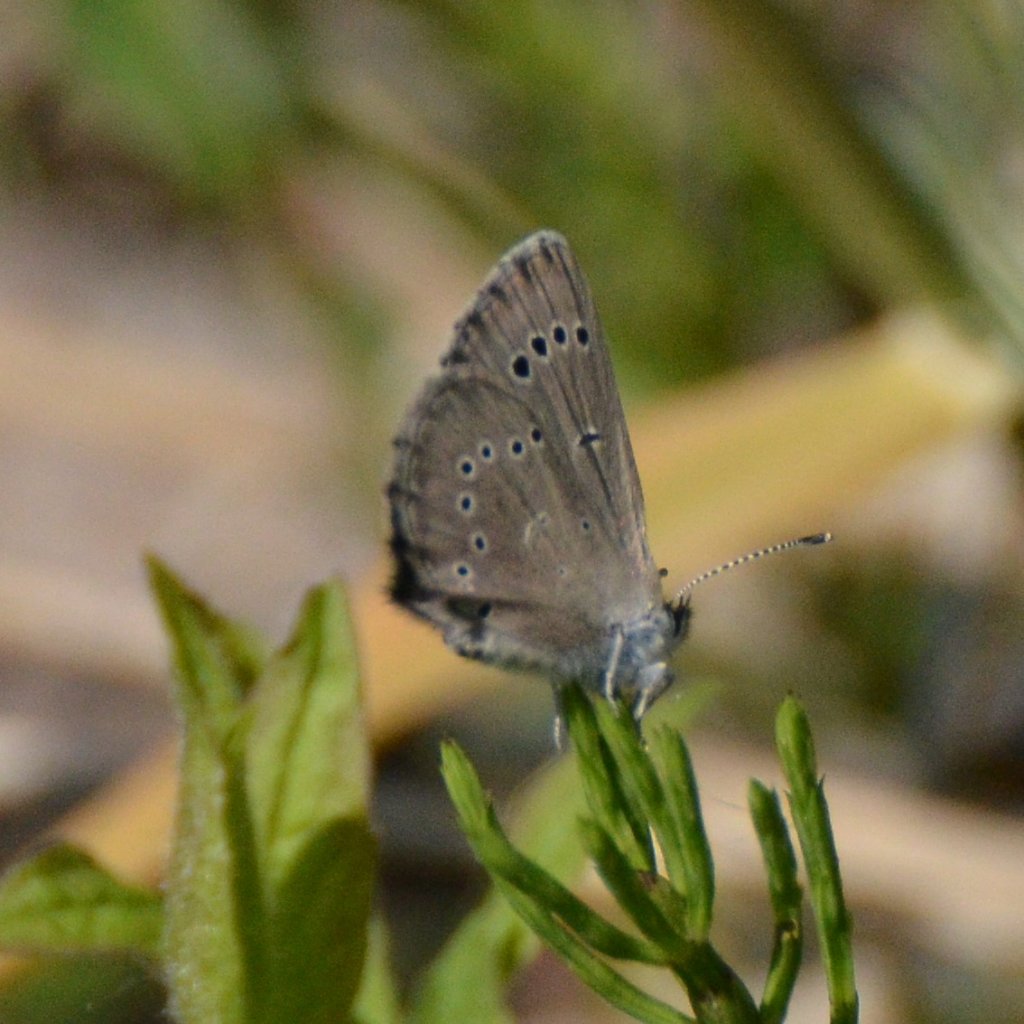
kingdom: Animalia
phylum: Arthropoda
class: Insecta
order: Lepidoptera
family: Lycaenidae
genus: Glaucopsyche
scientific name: Glaucopsyche lygdamus
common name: Silvery Blue
